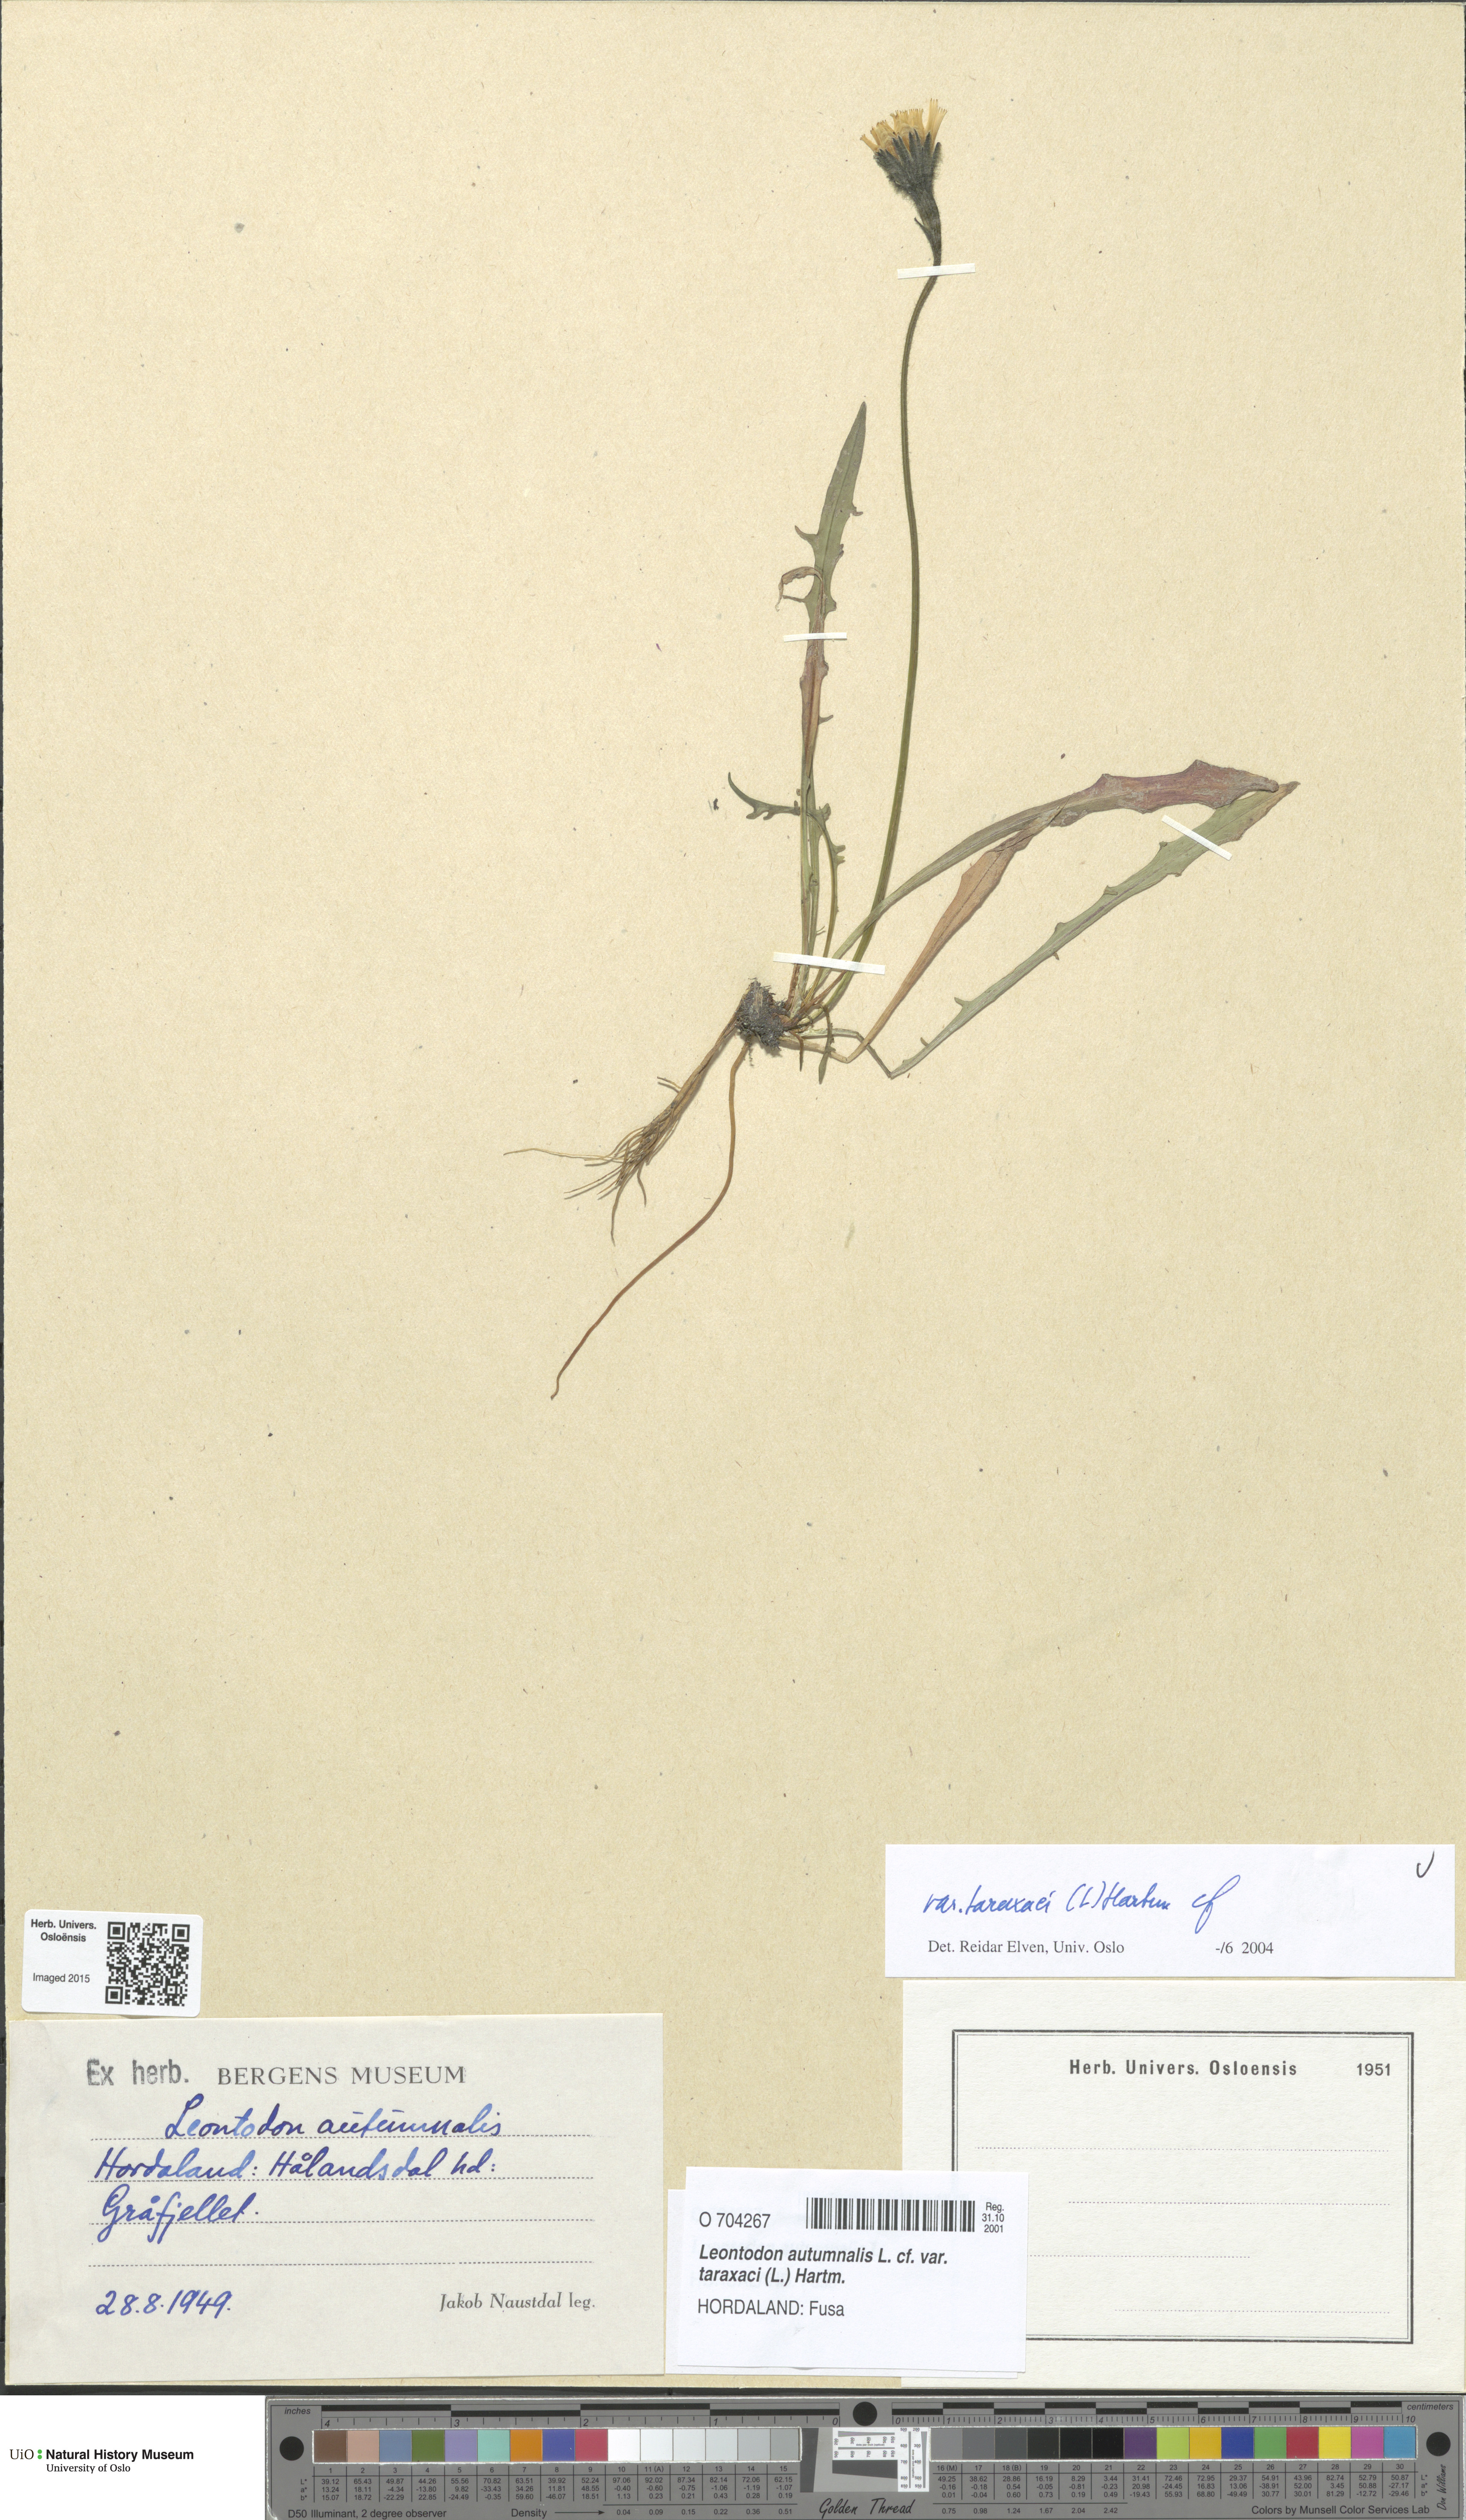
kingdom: Plantae
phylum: Tracheophyta
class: Magnoliopsida
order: Asterales
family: Asteraceae
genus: Scorzoneroides
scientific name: Scorzoneroides autumnalis
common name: Autumn hawkbit
